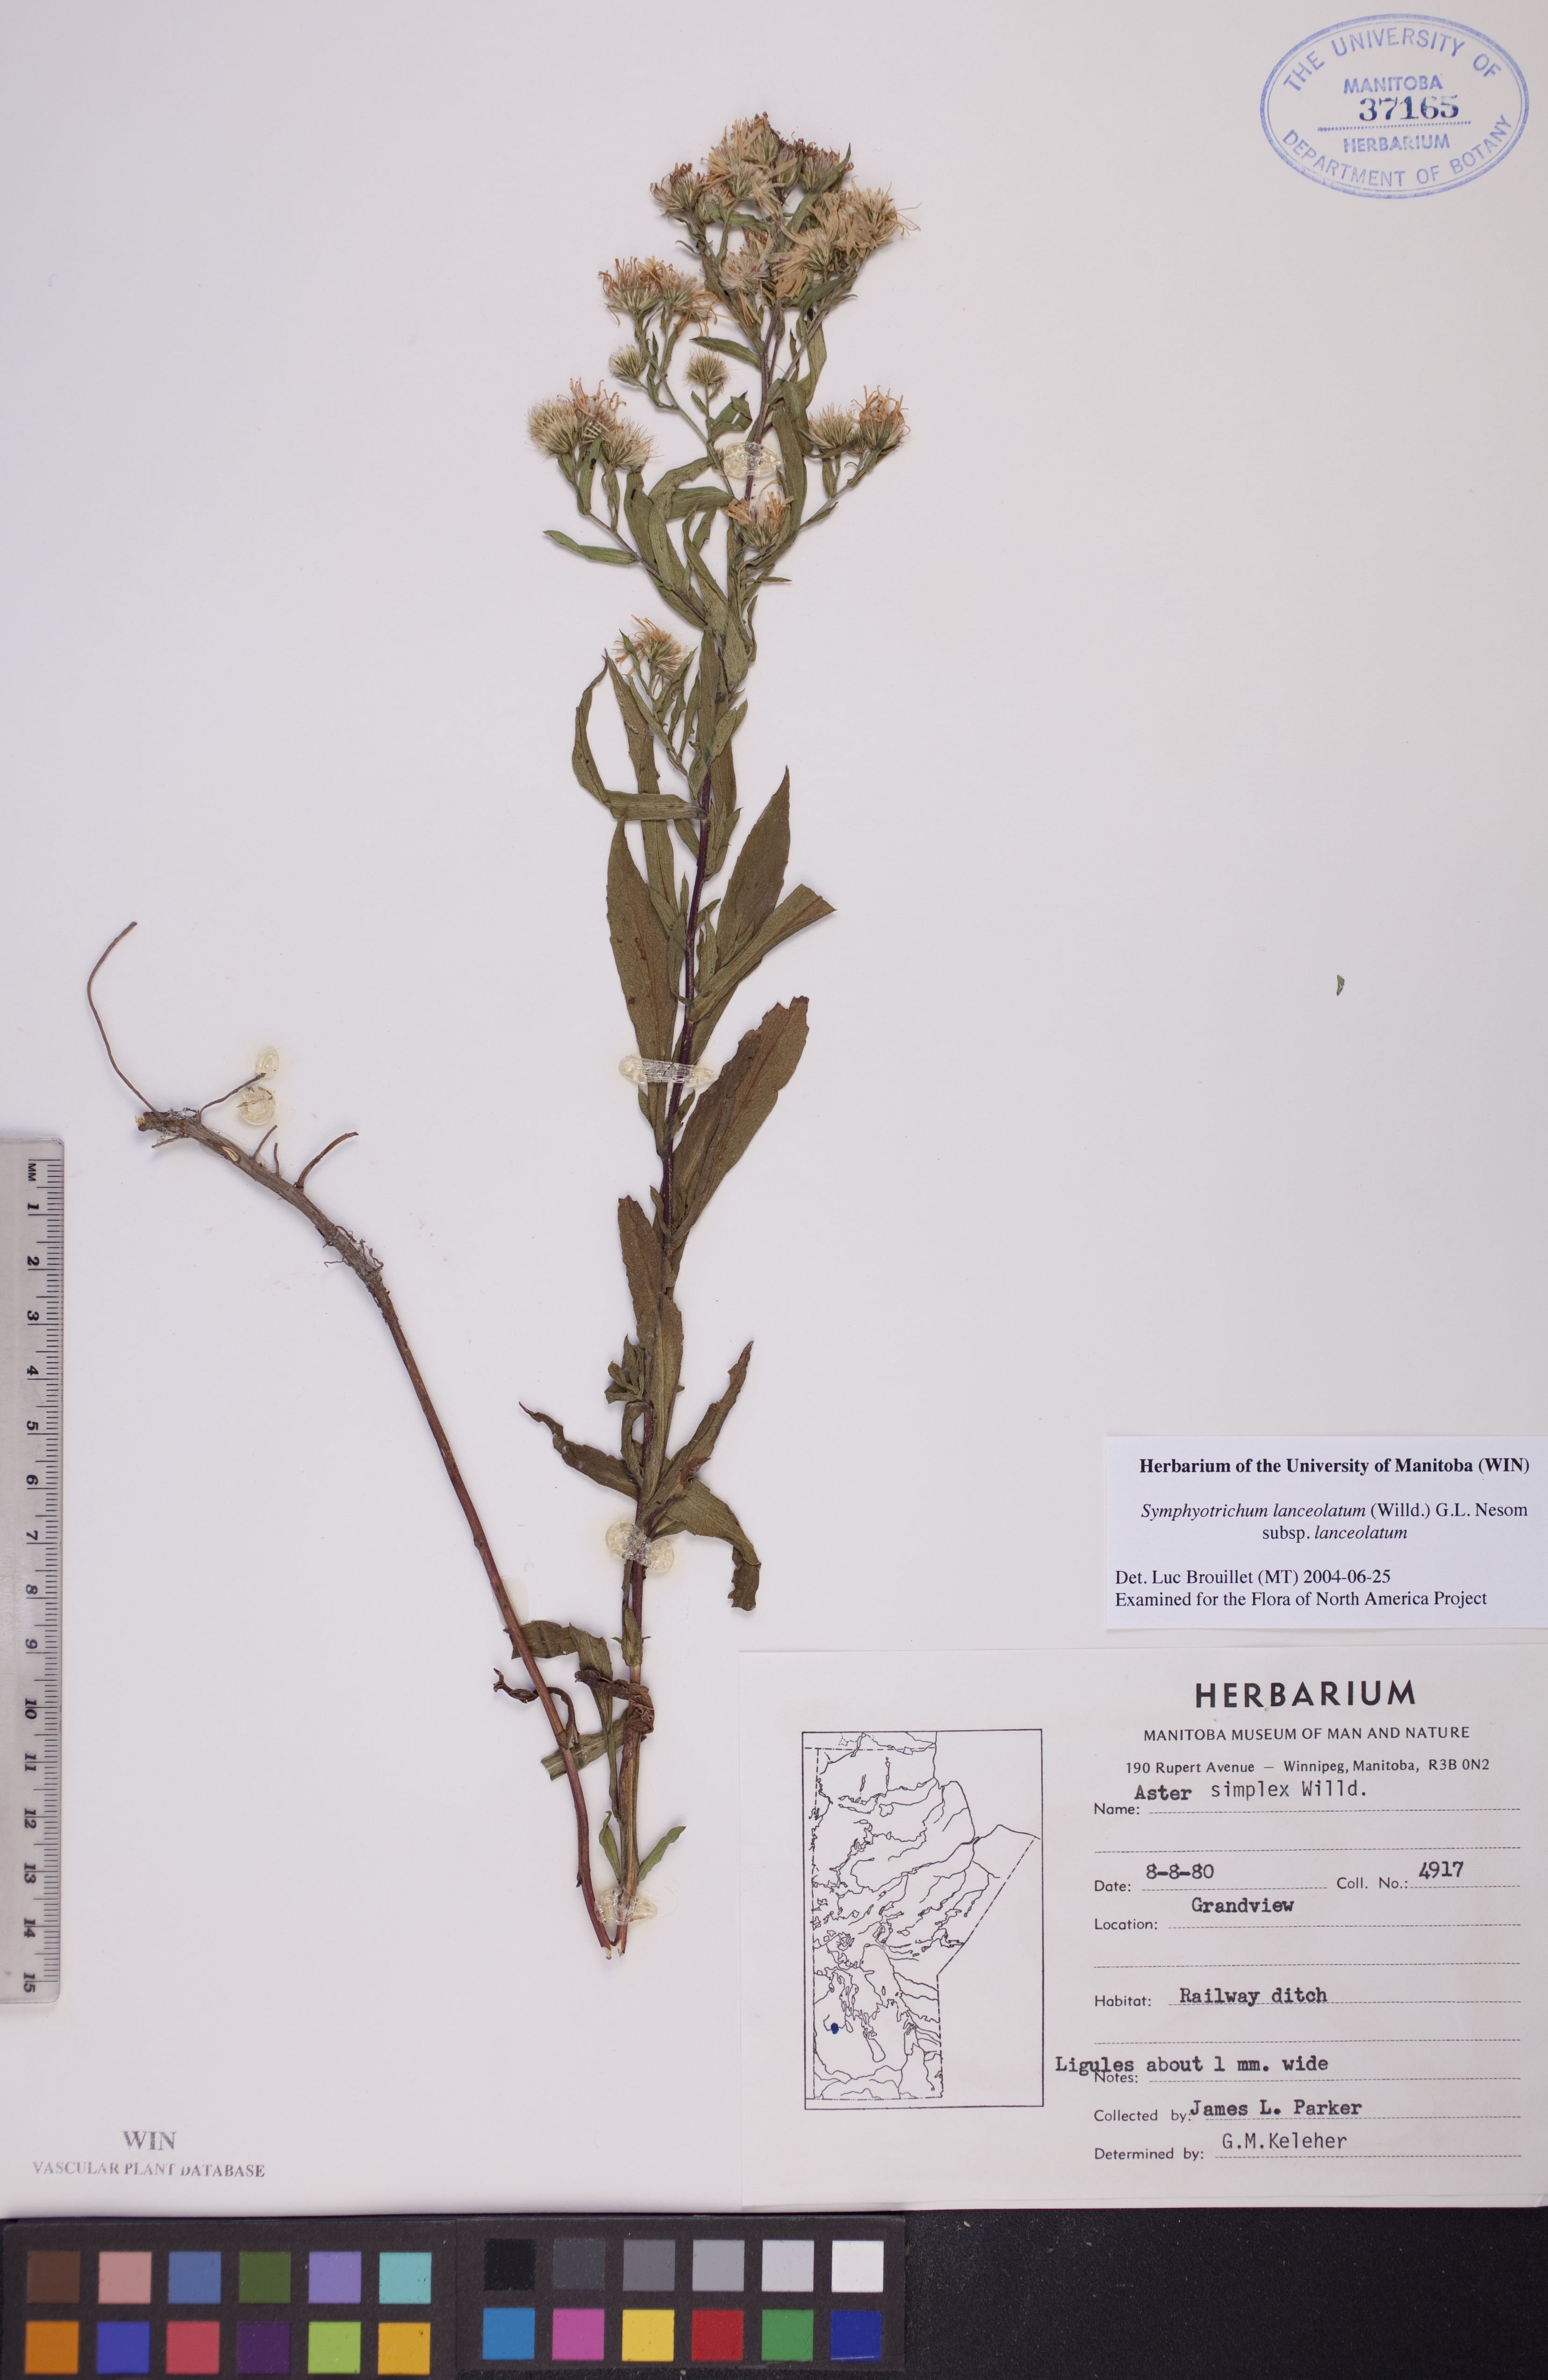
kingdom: Plantae
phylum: Tracheophyta
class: Magnoliopsida
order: Asterales
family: Asteraceae
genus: Symphyotrichum
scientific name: Symphyotrichum lanceolatum
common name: Panicled aster
